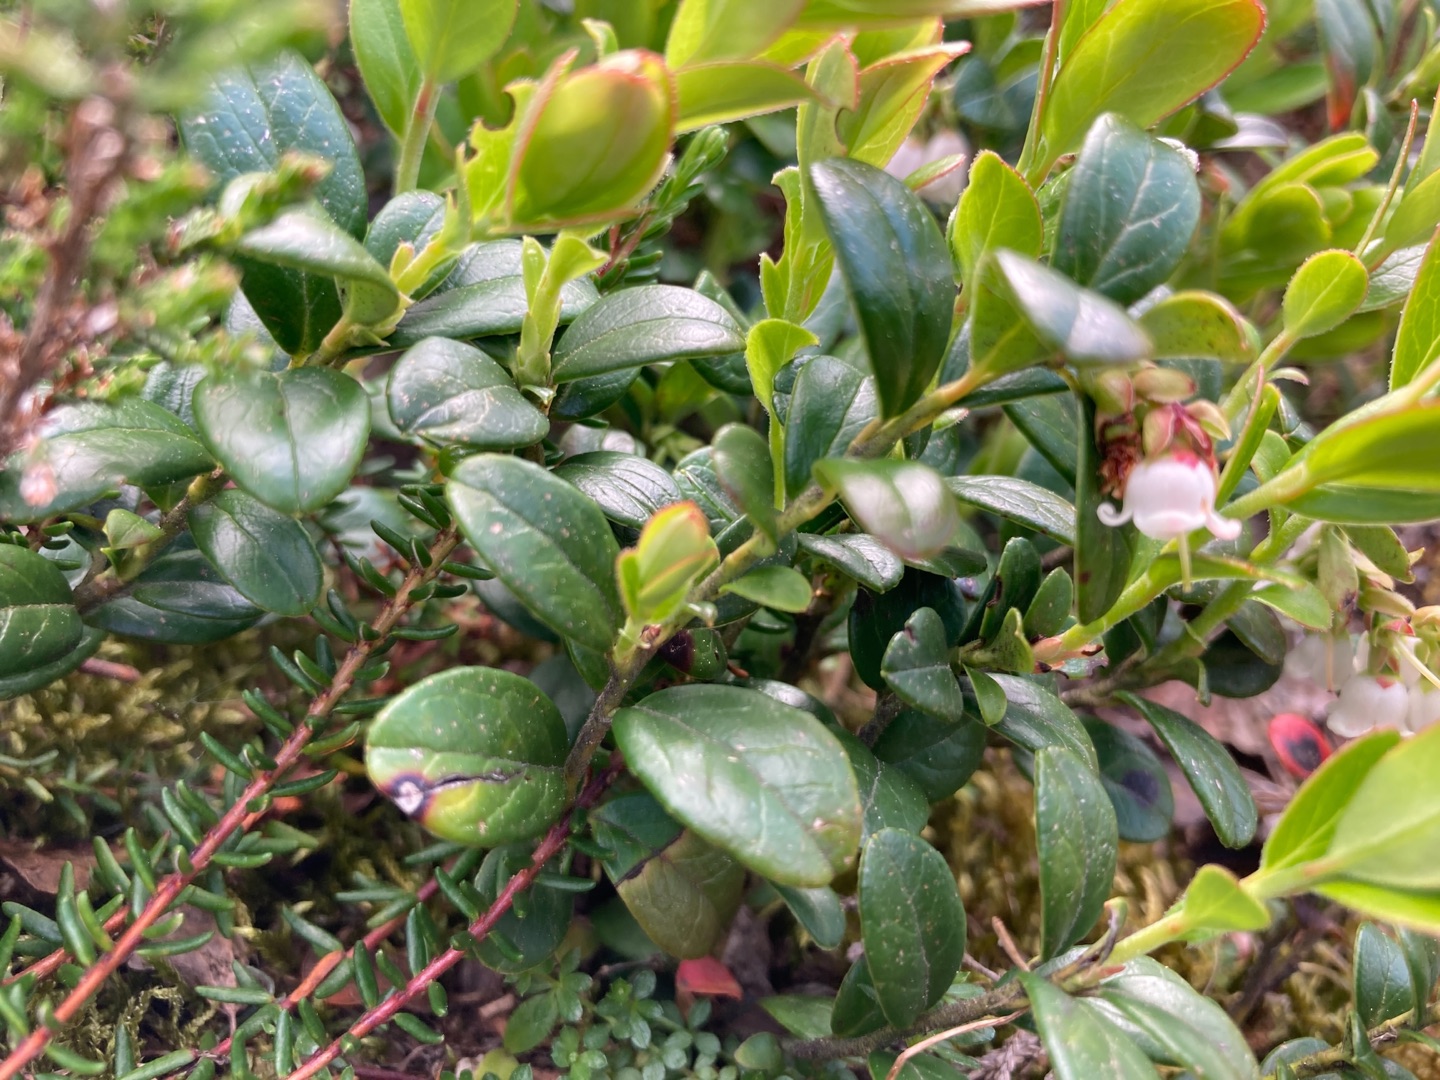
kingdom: Plantae
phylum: Tracheophyta
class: Magnoliopsida
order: Ericales
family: Ericaceae
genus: Vaccinium
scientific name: Vaccinium vitis-idaea
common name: Tyttebær
